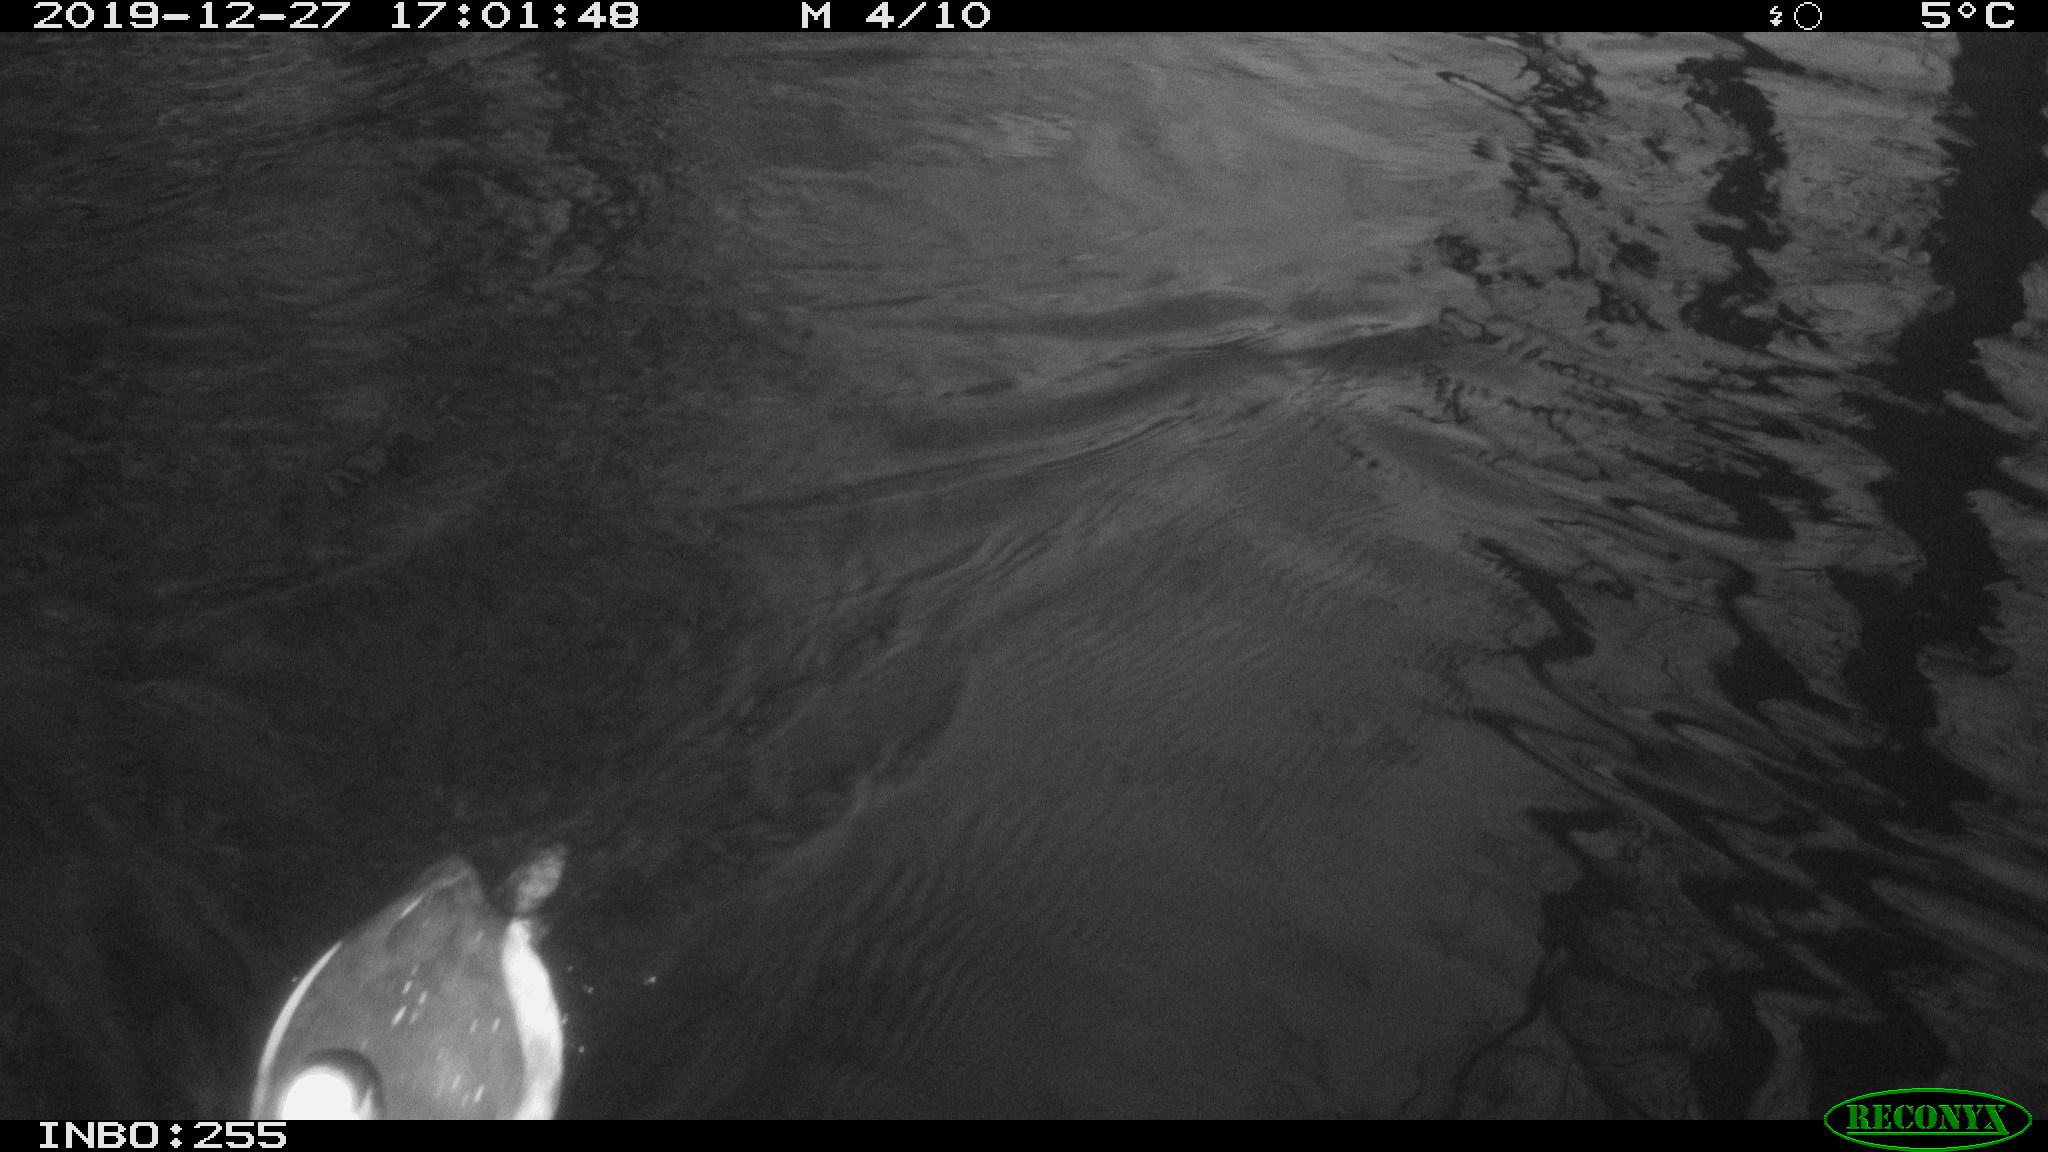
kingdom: Animalia
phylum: Chordata
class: Aves
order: Gruiformes
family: Rallidae
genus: Fulica
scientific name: Fulica atra
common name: Eurasian coot
